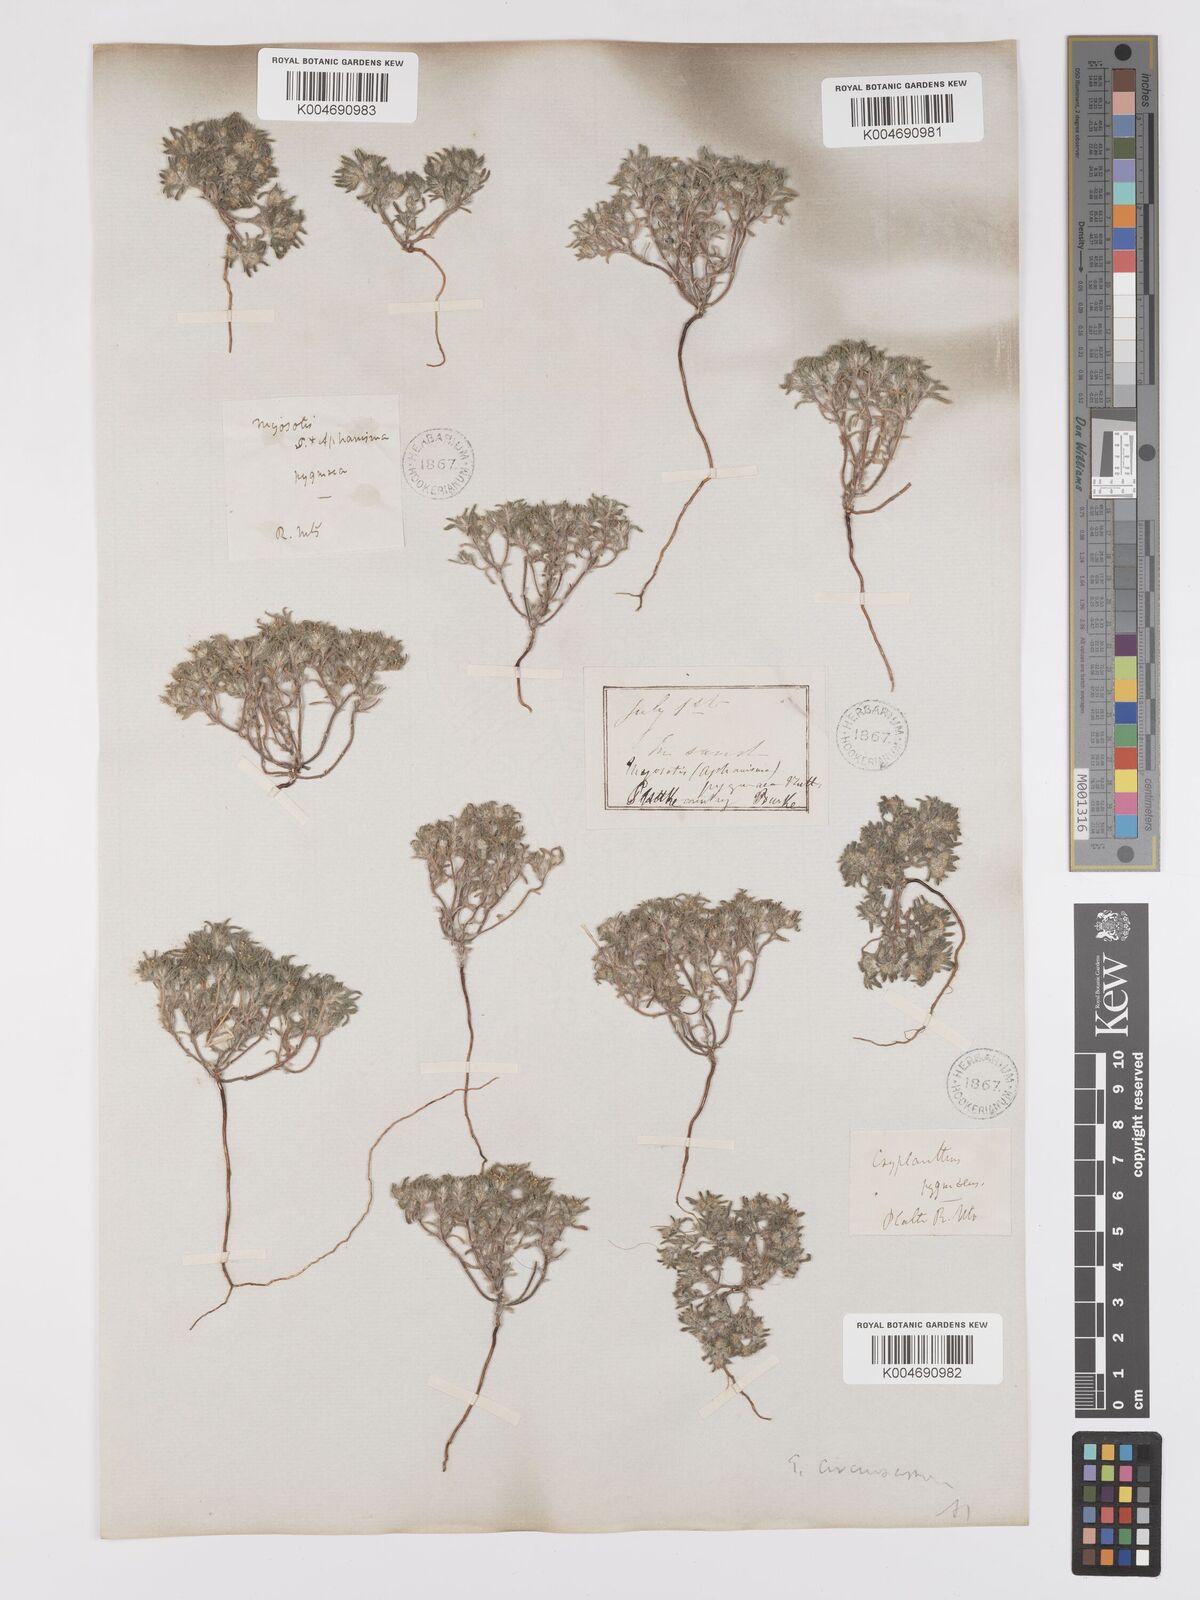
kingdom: Plantae
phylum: Tracheophyta
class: Magnoliopsida
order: Boraginales
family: Boraginaceae
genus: Greeneocharis
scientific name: Greeneocharis circumscissa
